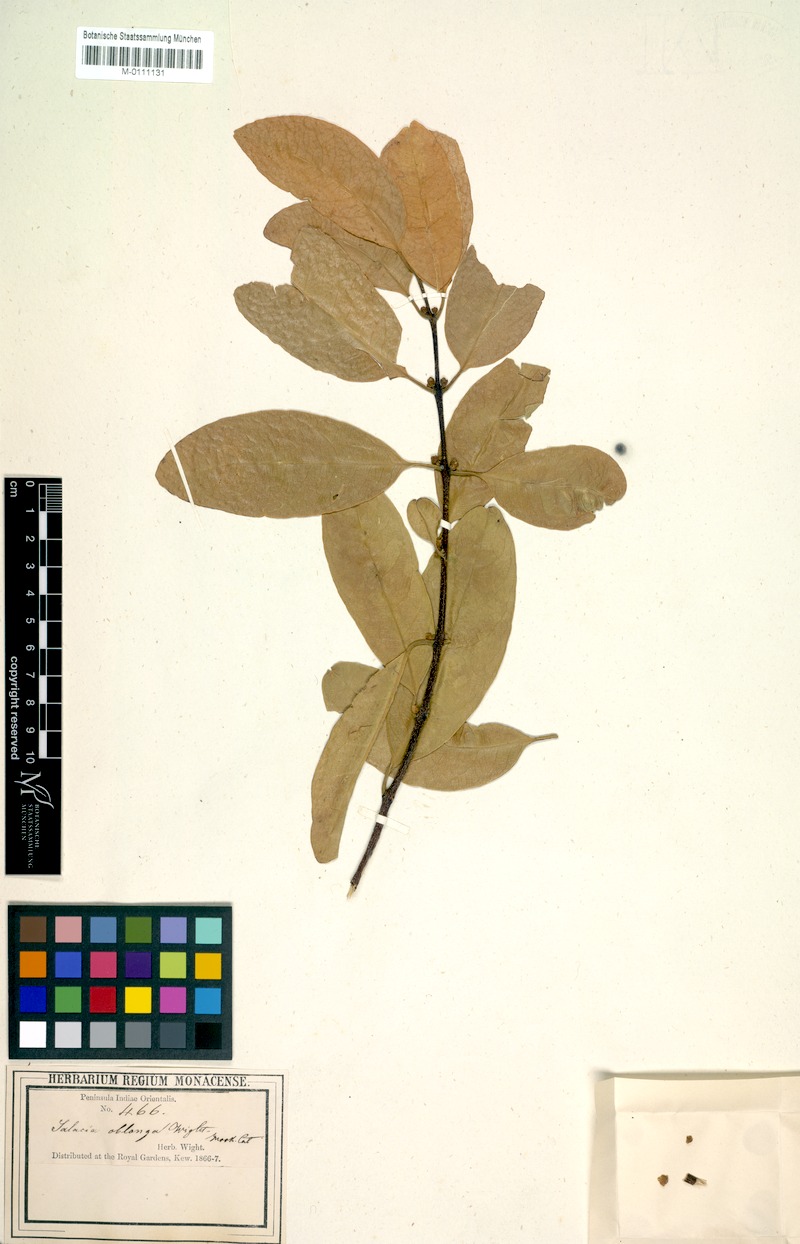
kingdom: Plantae
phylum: Tracheophyta
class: Magnoliopsida
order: Celastrales
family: Celastraceae
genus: Salacia
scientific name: Salacia oblonga
